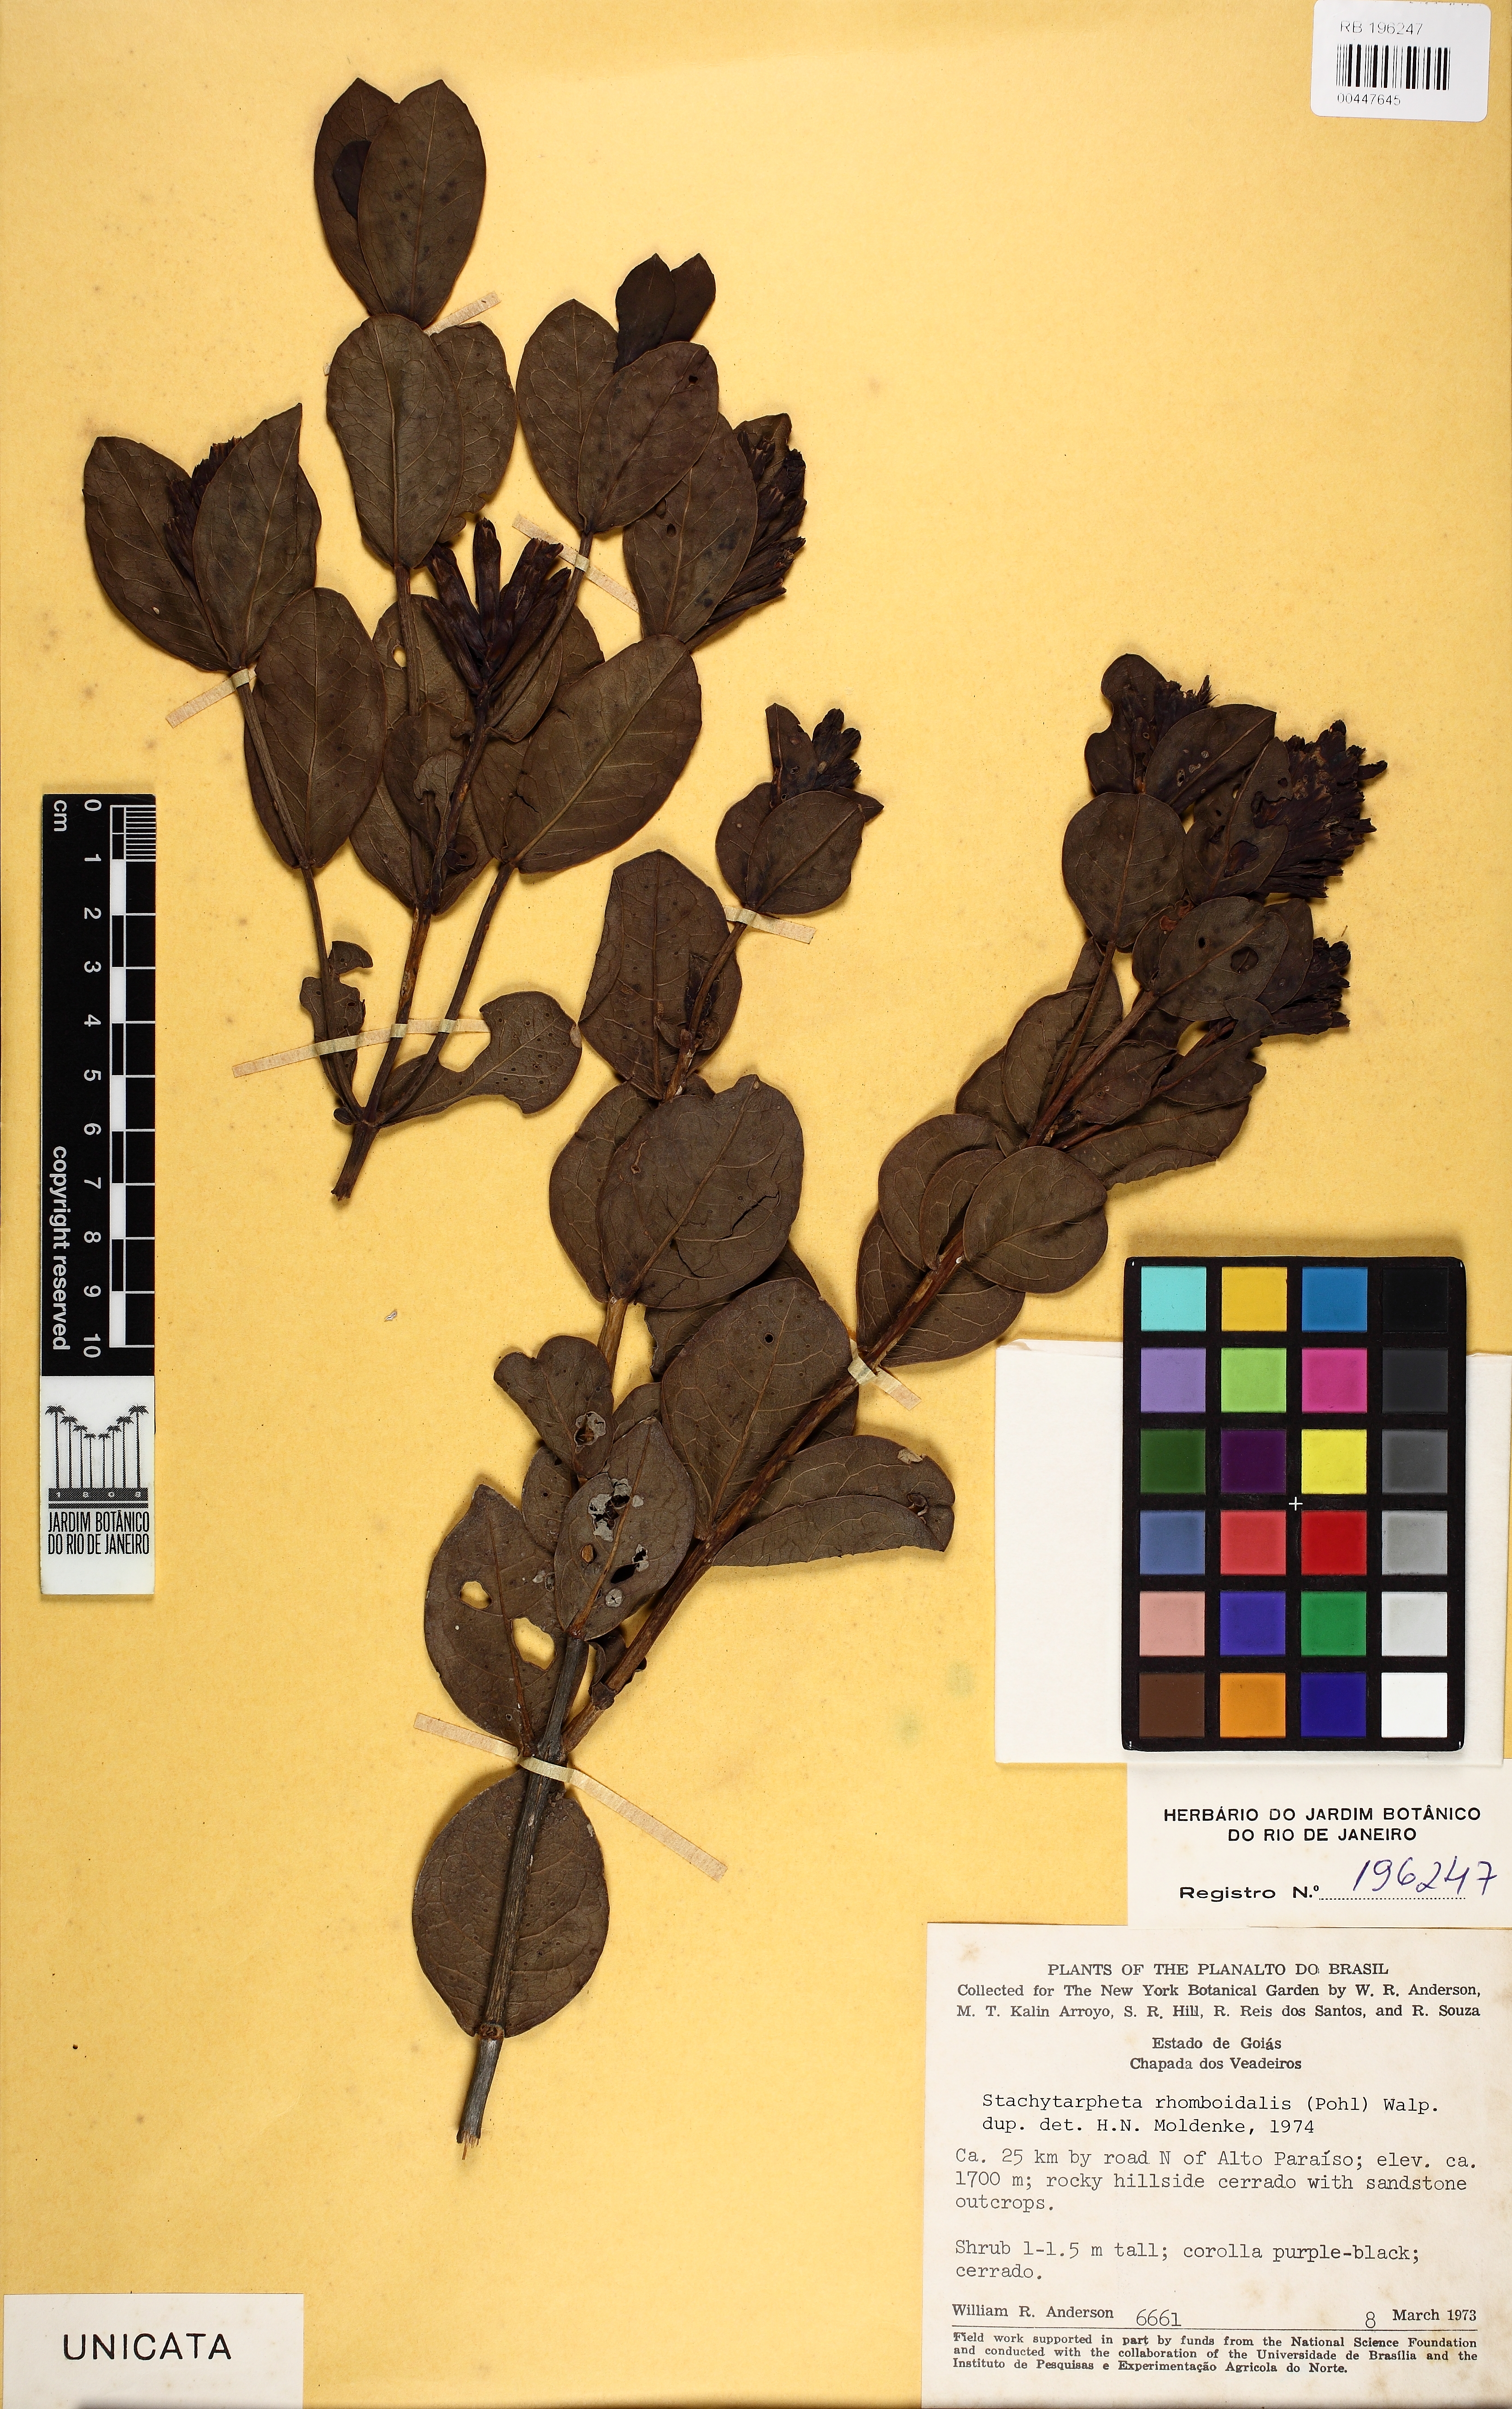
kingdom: Plantae
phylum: Tracheophyta
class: Magnoliopsida
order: Lamiales
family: Verbenaceae
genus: Stachytarpheta
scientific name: Stachytarpheta glauca
